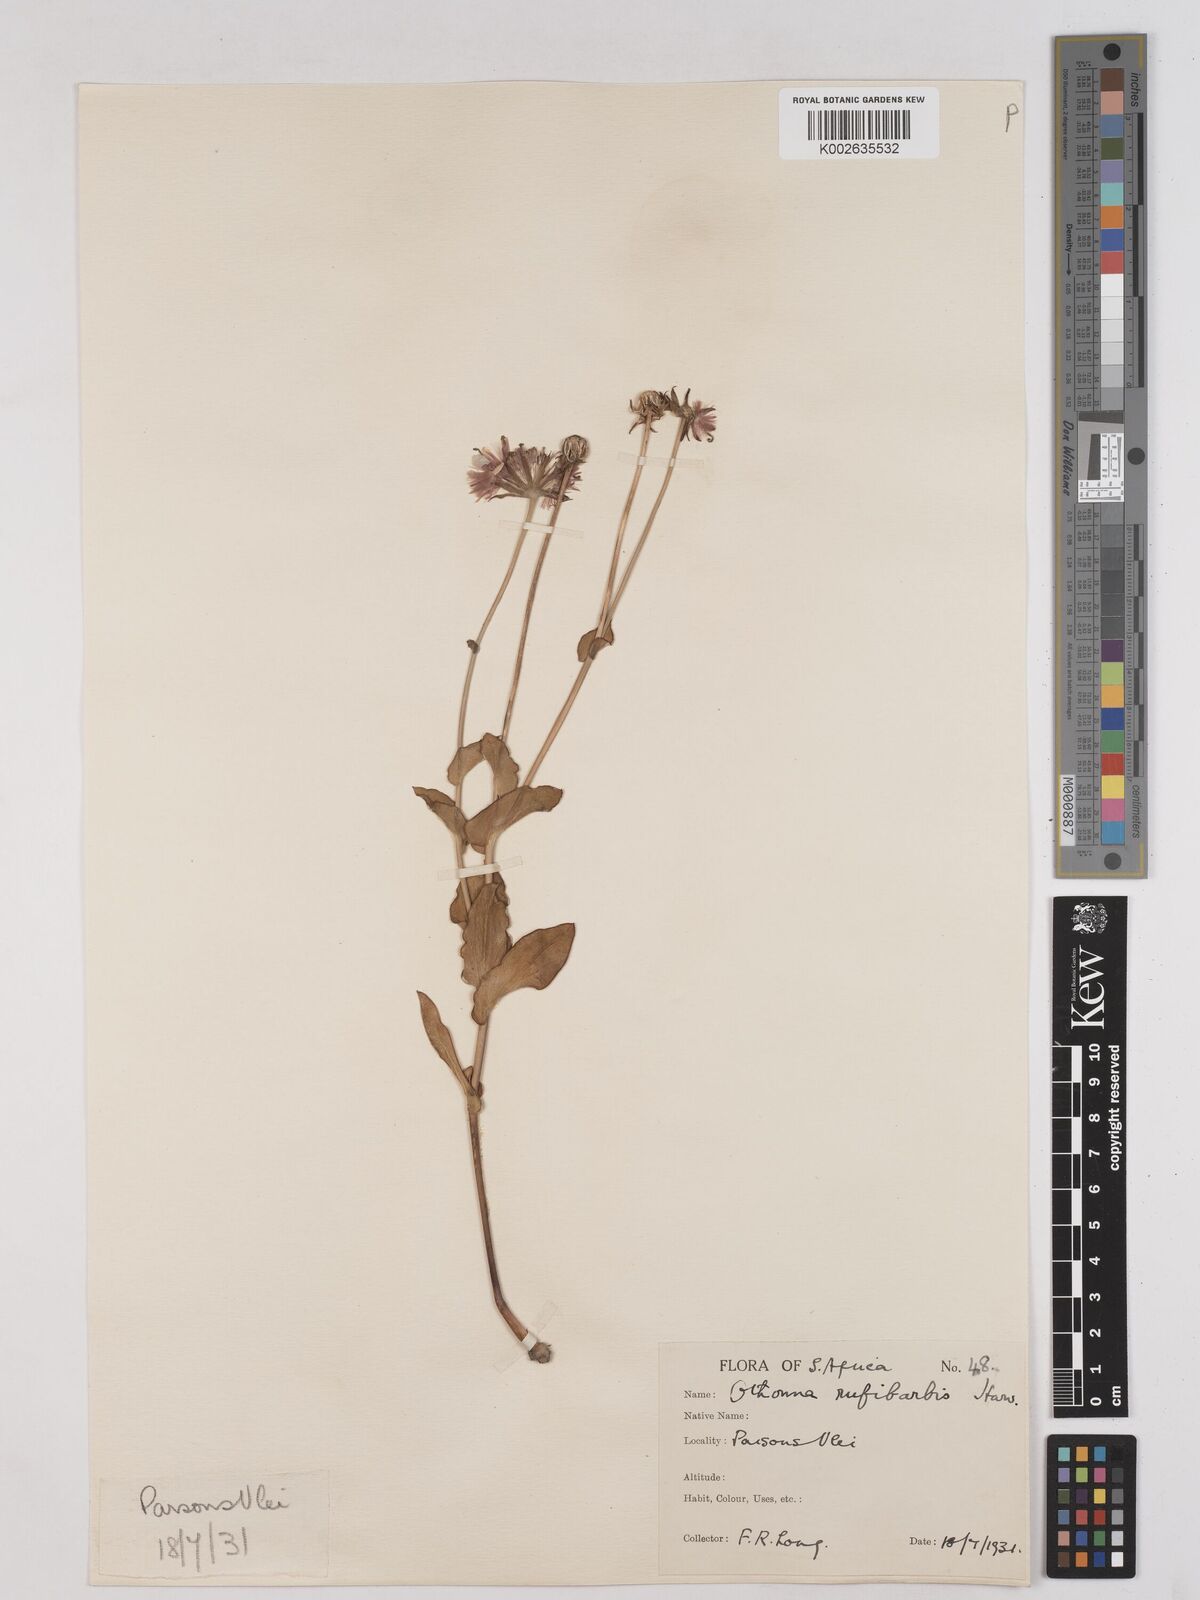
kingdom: Plantae
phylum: Tracheophyta
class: Magnoliopsida
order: Asterales
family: Asteraceae
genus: Othonna
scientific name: Othonna rufibarbis
